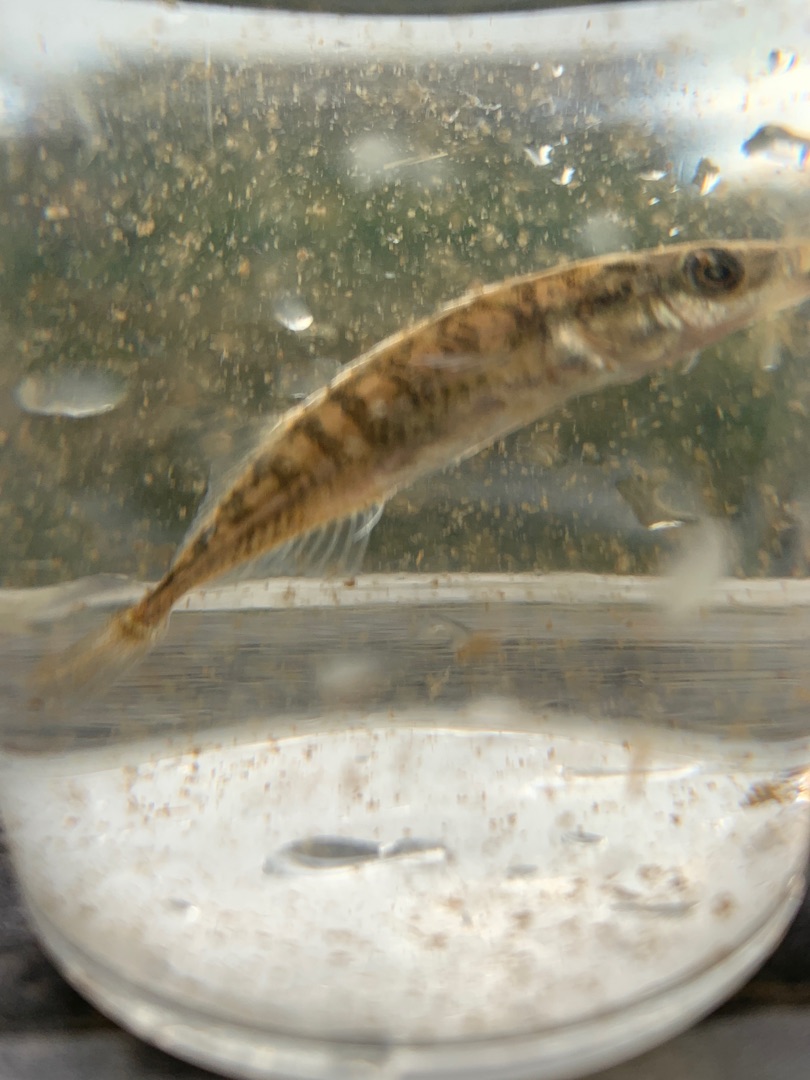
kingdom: Animalia
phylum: Chordata
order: Gasterosteiformes
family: Gasterosteidae
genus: Pungitius
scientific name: Pungitius pungitius
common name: Nipigget hundestejle
